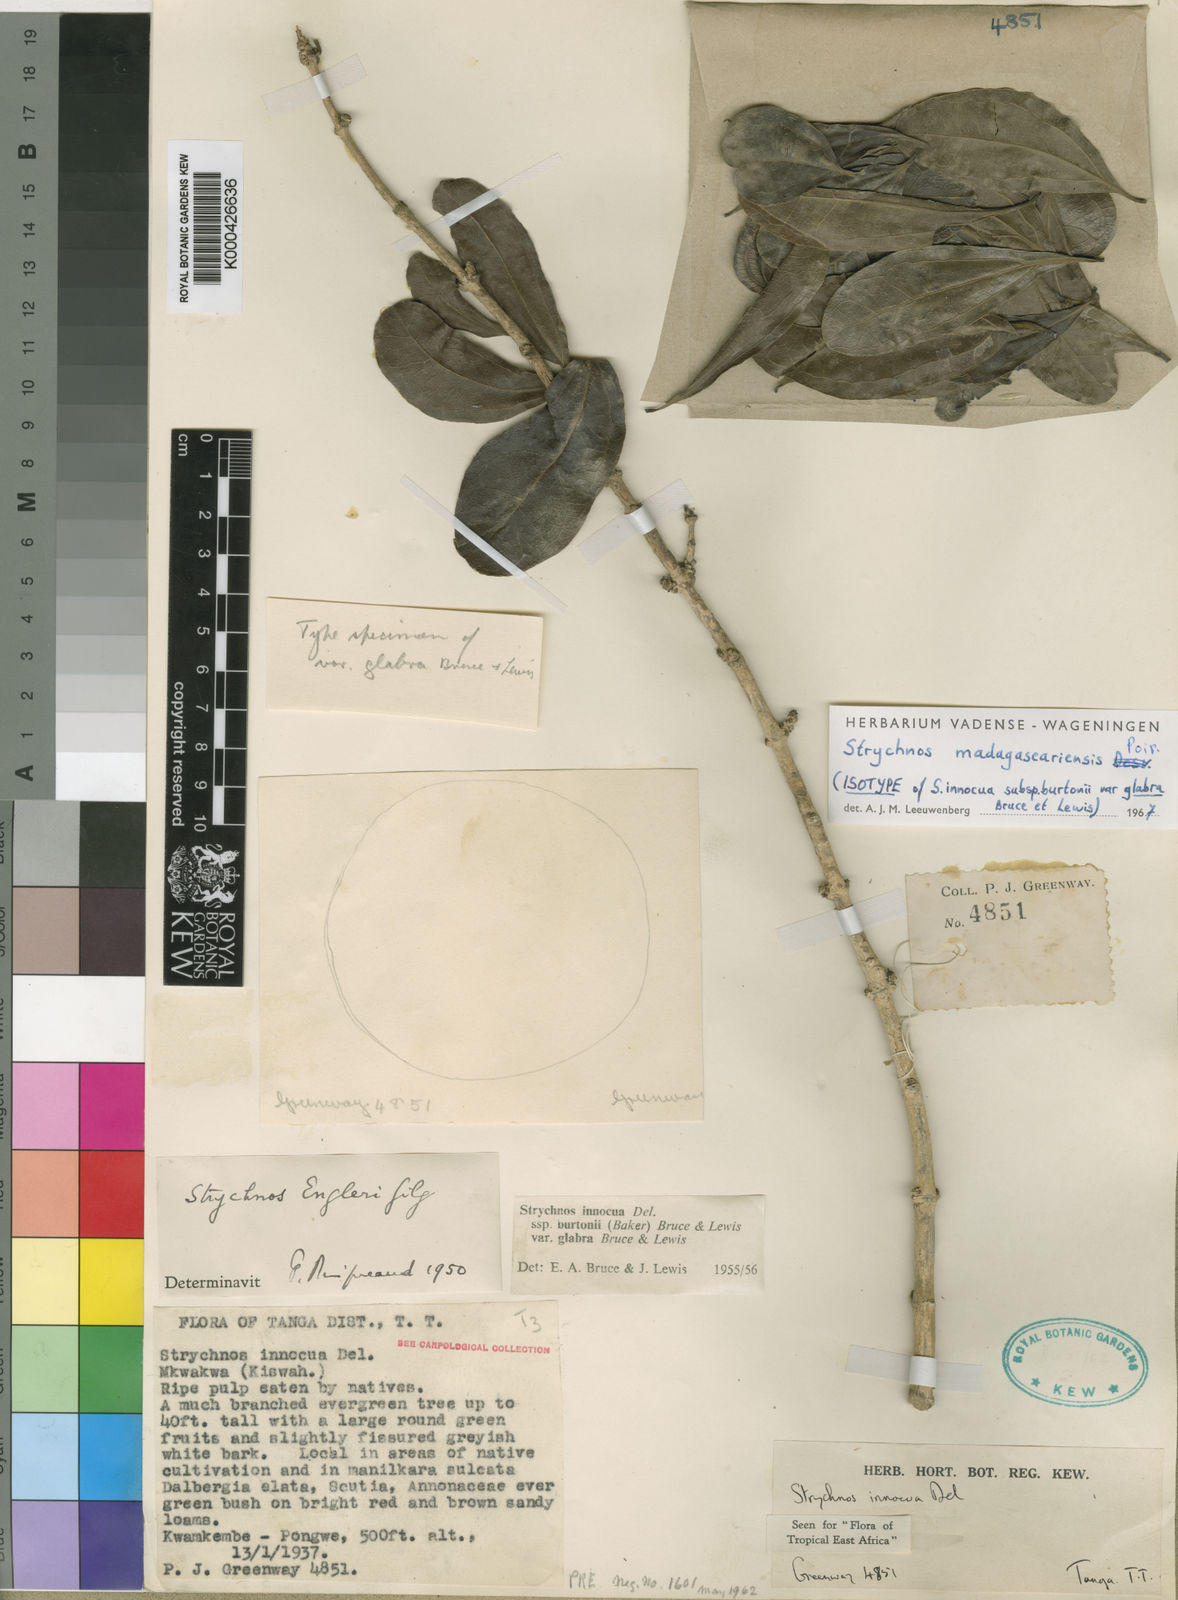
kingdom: Plantae
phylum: Tracheophyta
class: Magnoliopsida
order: Gentianales
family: Loganiaceae
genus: Strychnos
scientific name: Strychnos madagascariensis
